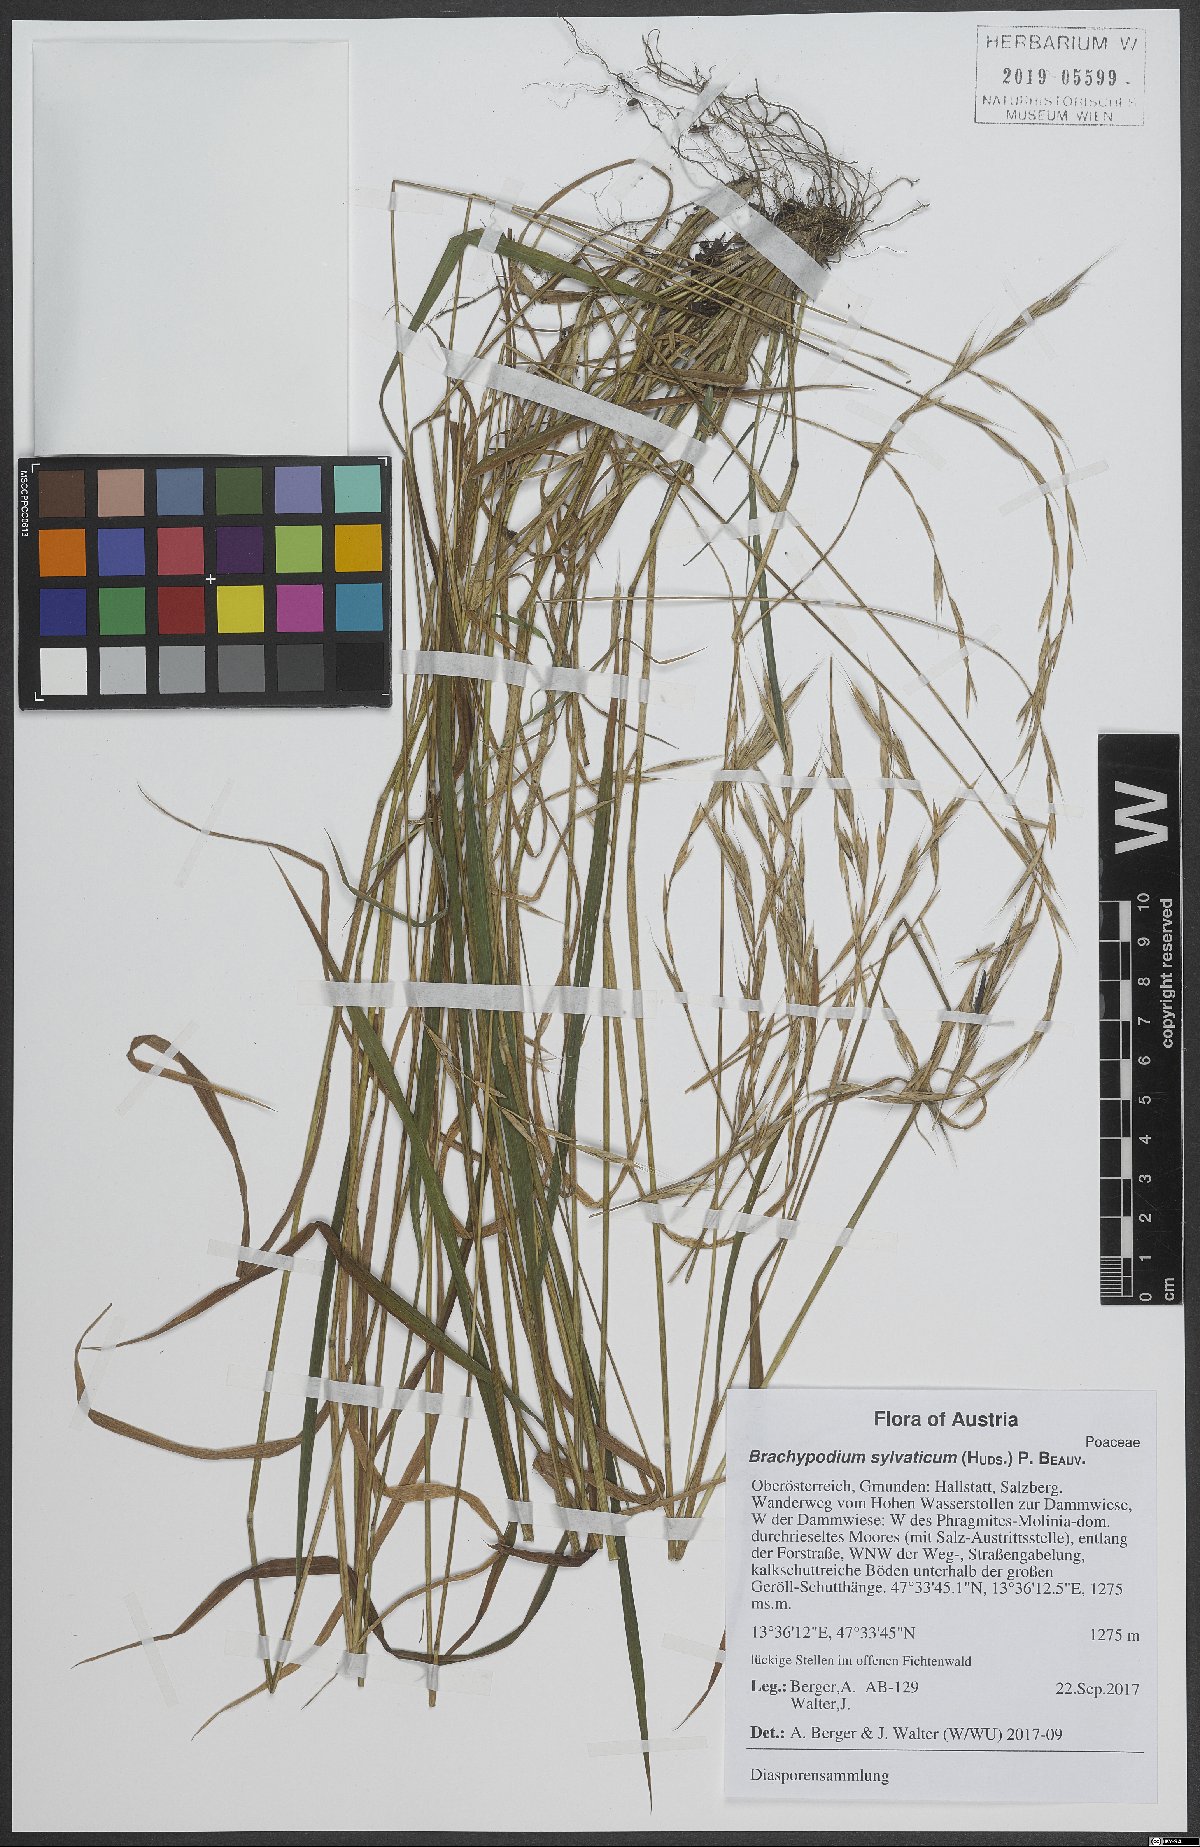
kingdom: Plantae
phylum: Tracheophyta
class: Liliopsida
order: Poales
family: Poaceae
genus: Brachypodium
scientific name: Brachypodium sylvaticum
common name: False-brome
